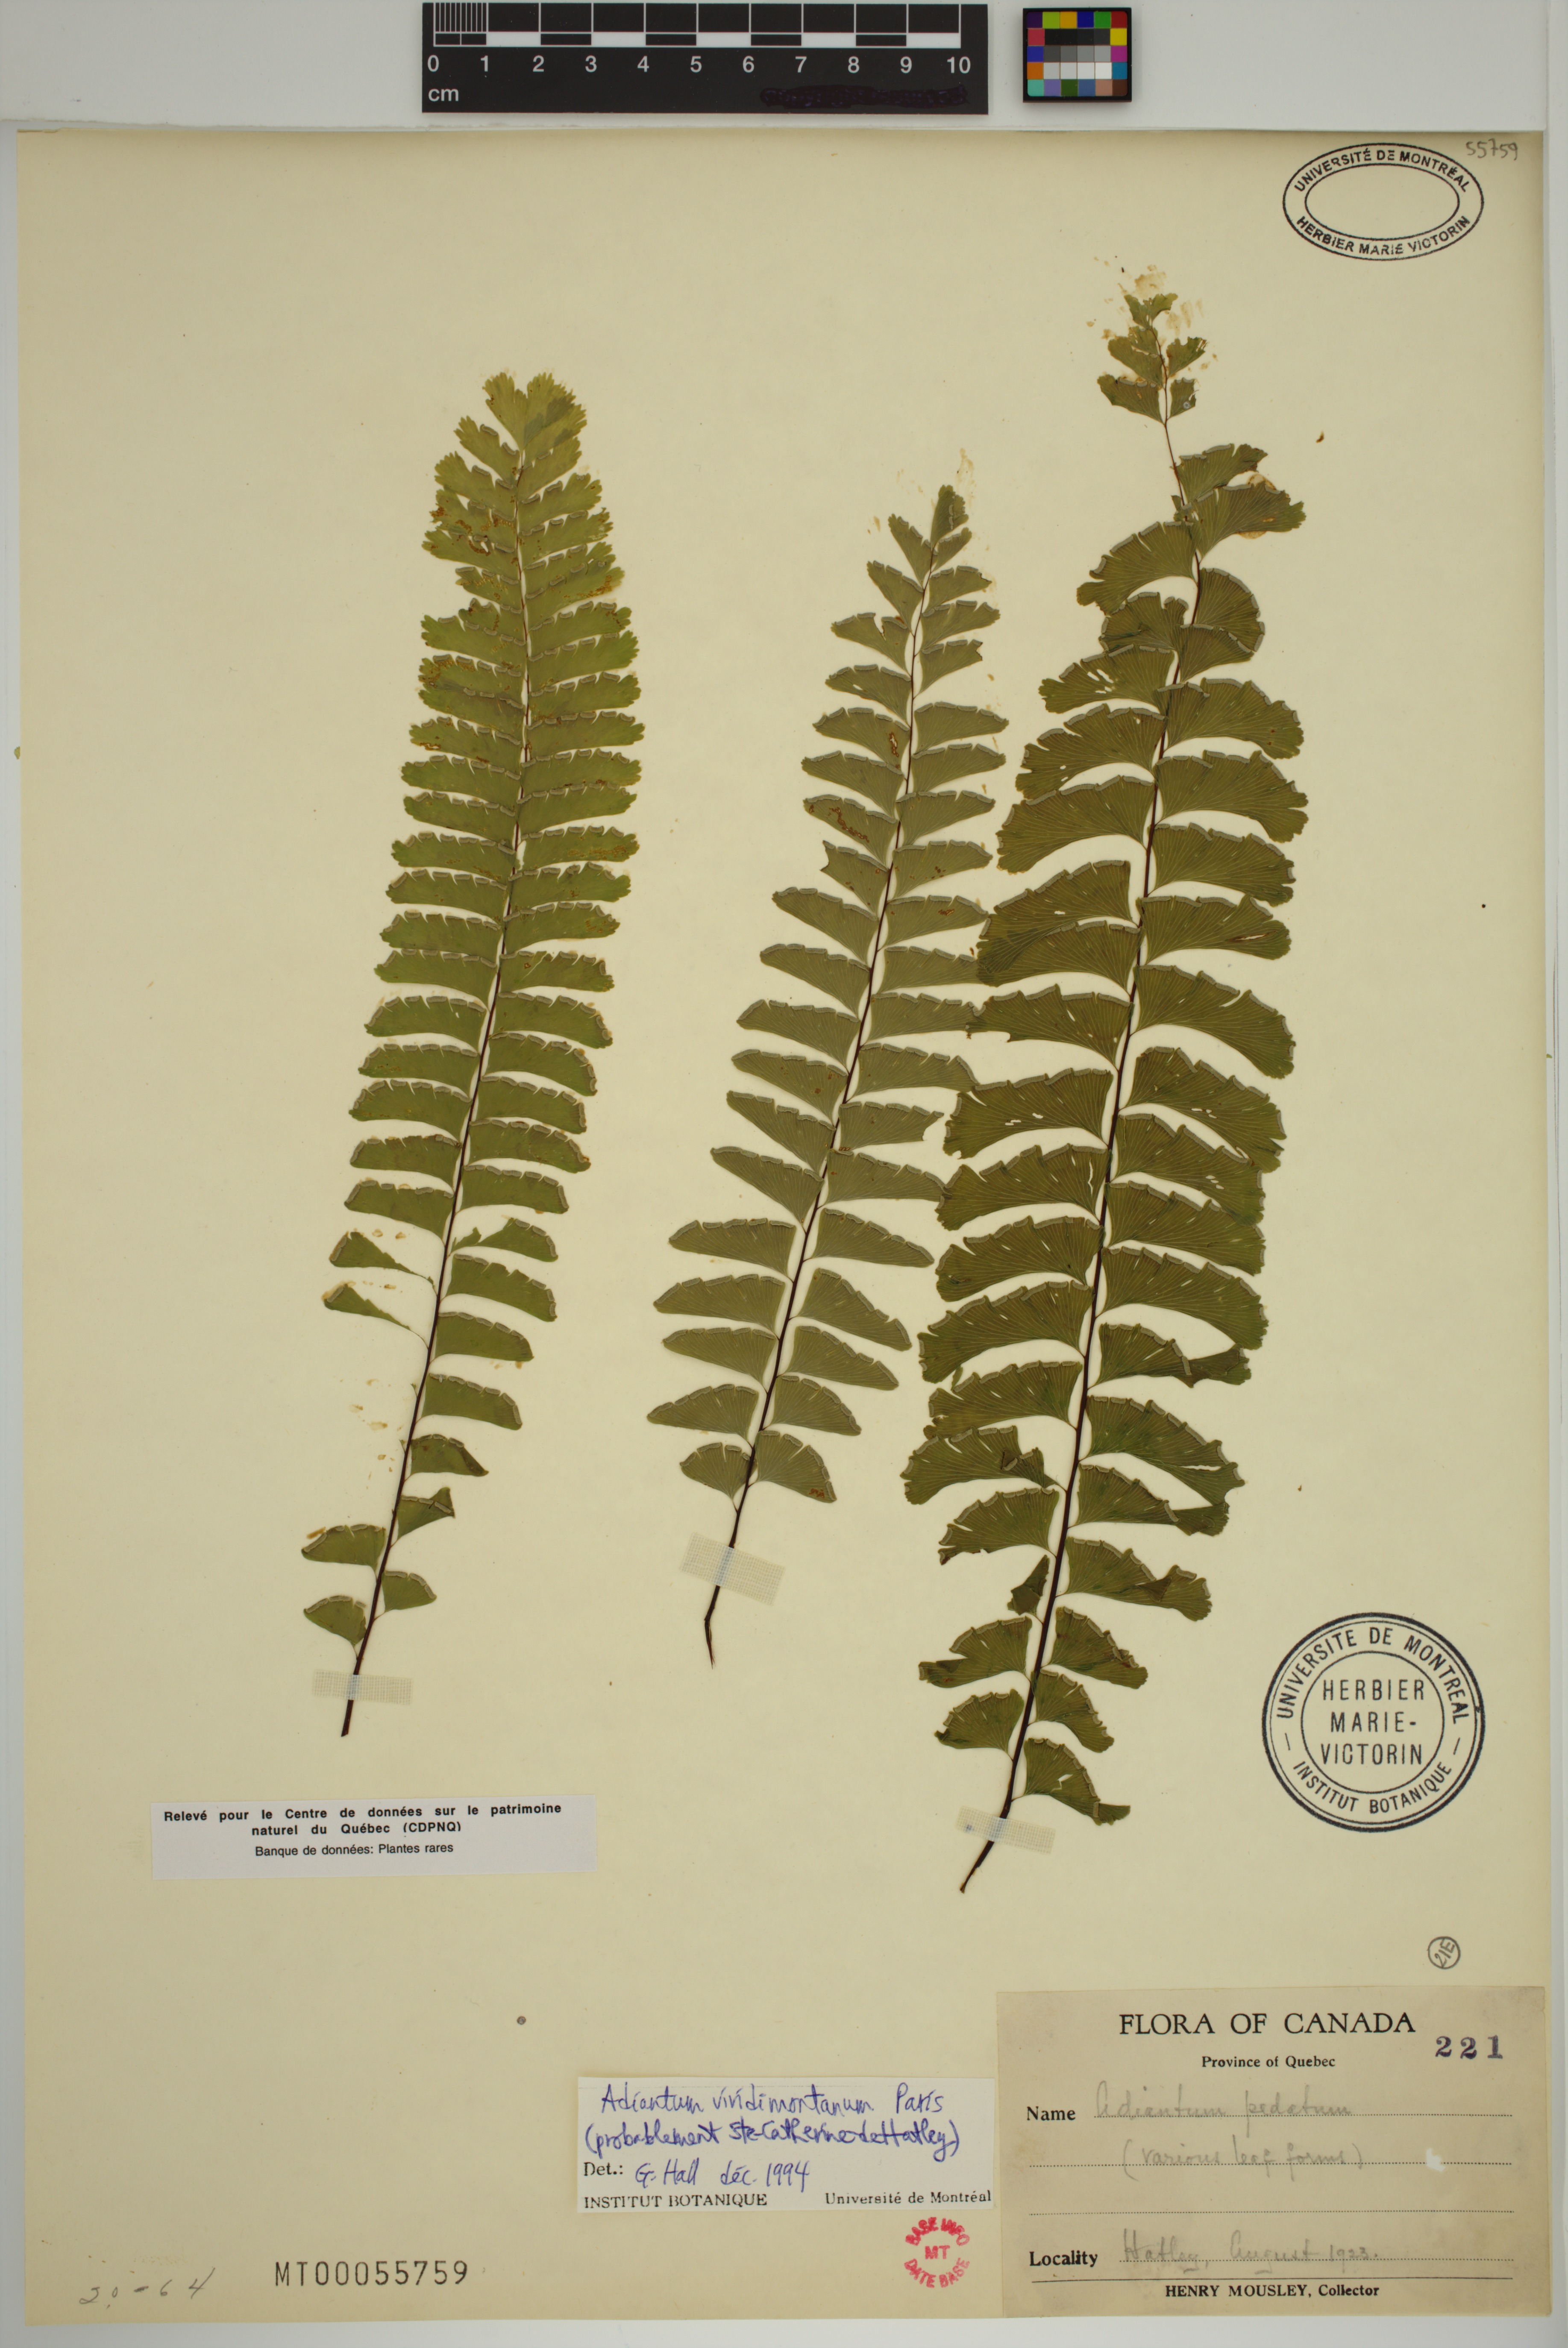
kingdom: Plantae
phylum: Tracheophyta
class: Polypodiopsida
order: Polypodiales
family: Pteridaceae
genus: Adiantum
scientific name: Adiantum viridimontanum
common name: Green mountain maidenhair
